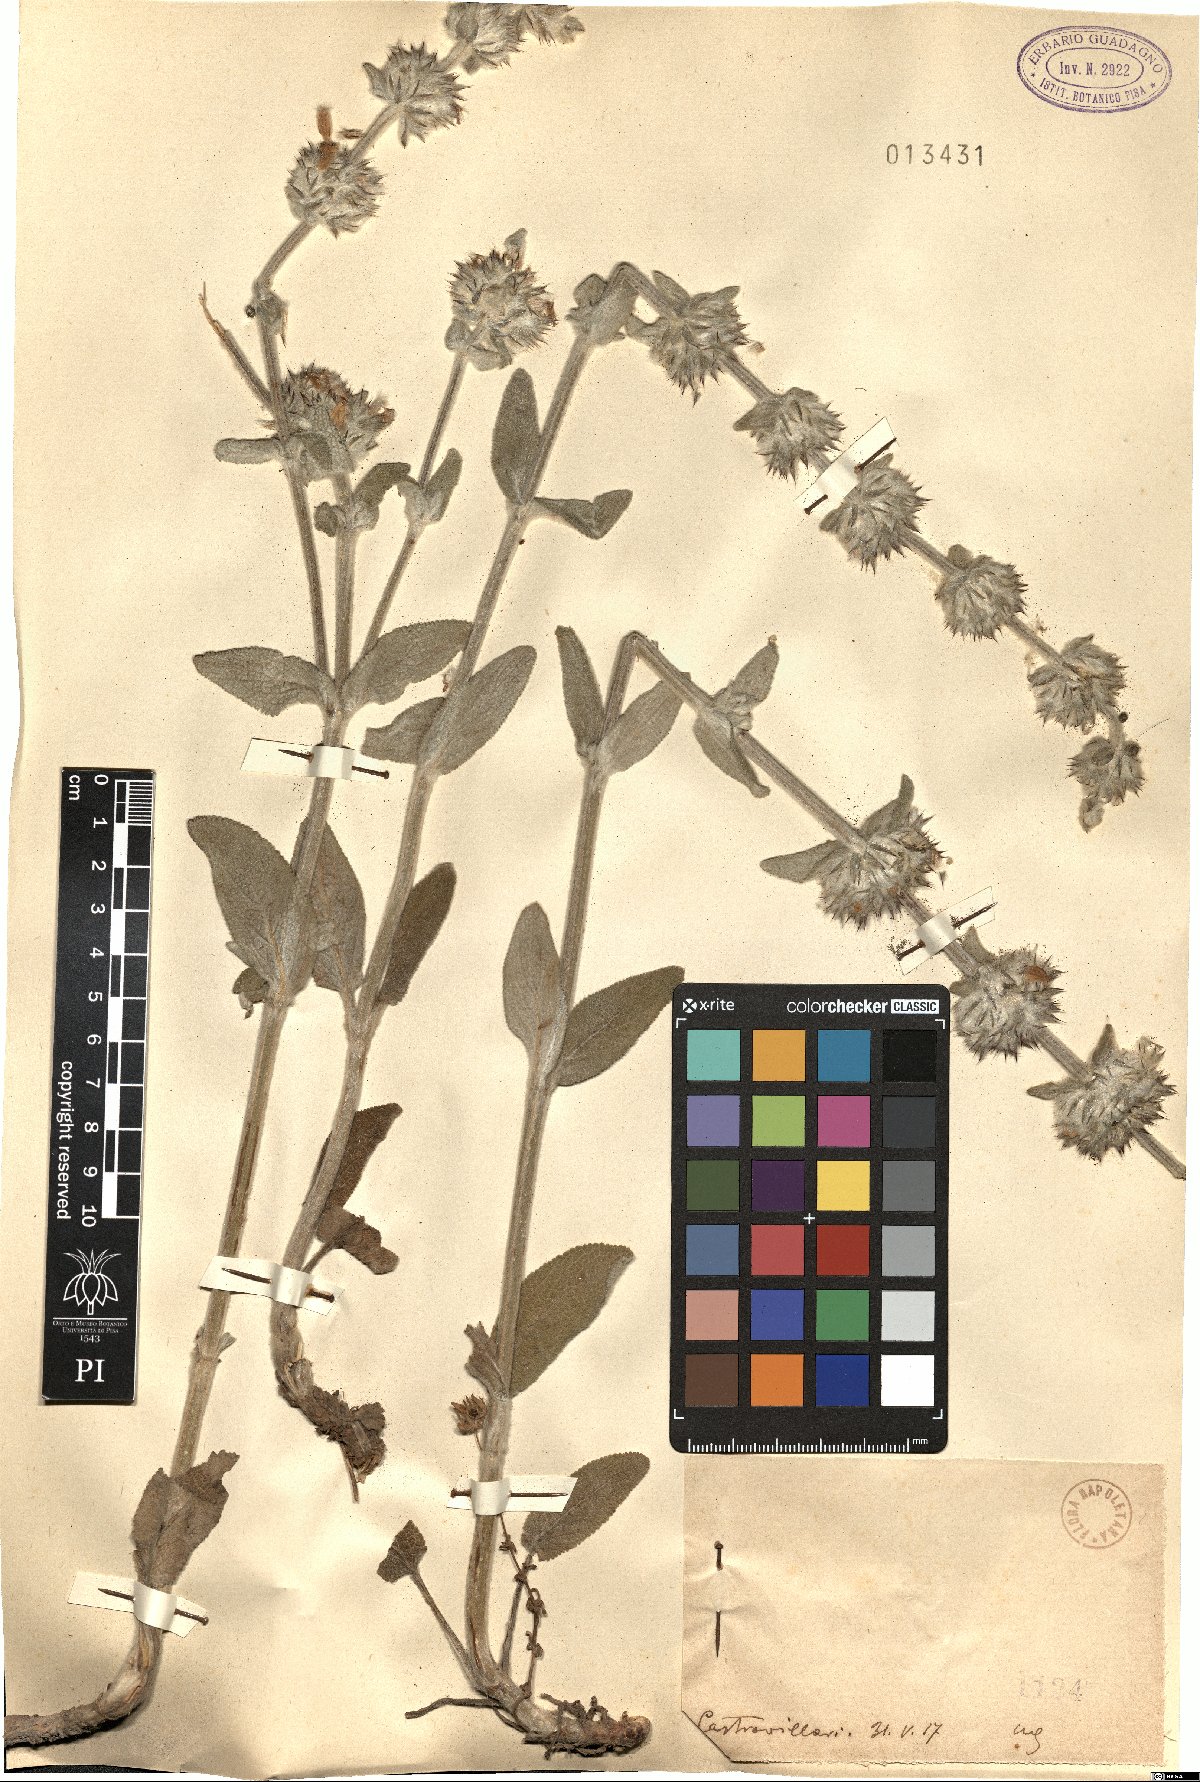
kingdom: Plantae
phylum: Tracheophyta
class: Magnoliopsida
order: Lamiales
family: Lamiaceae
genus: Stachys
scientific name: Stachys
